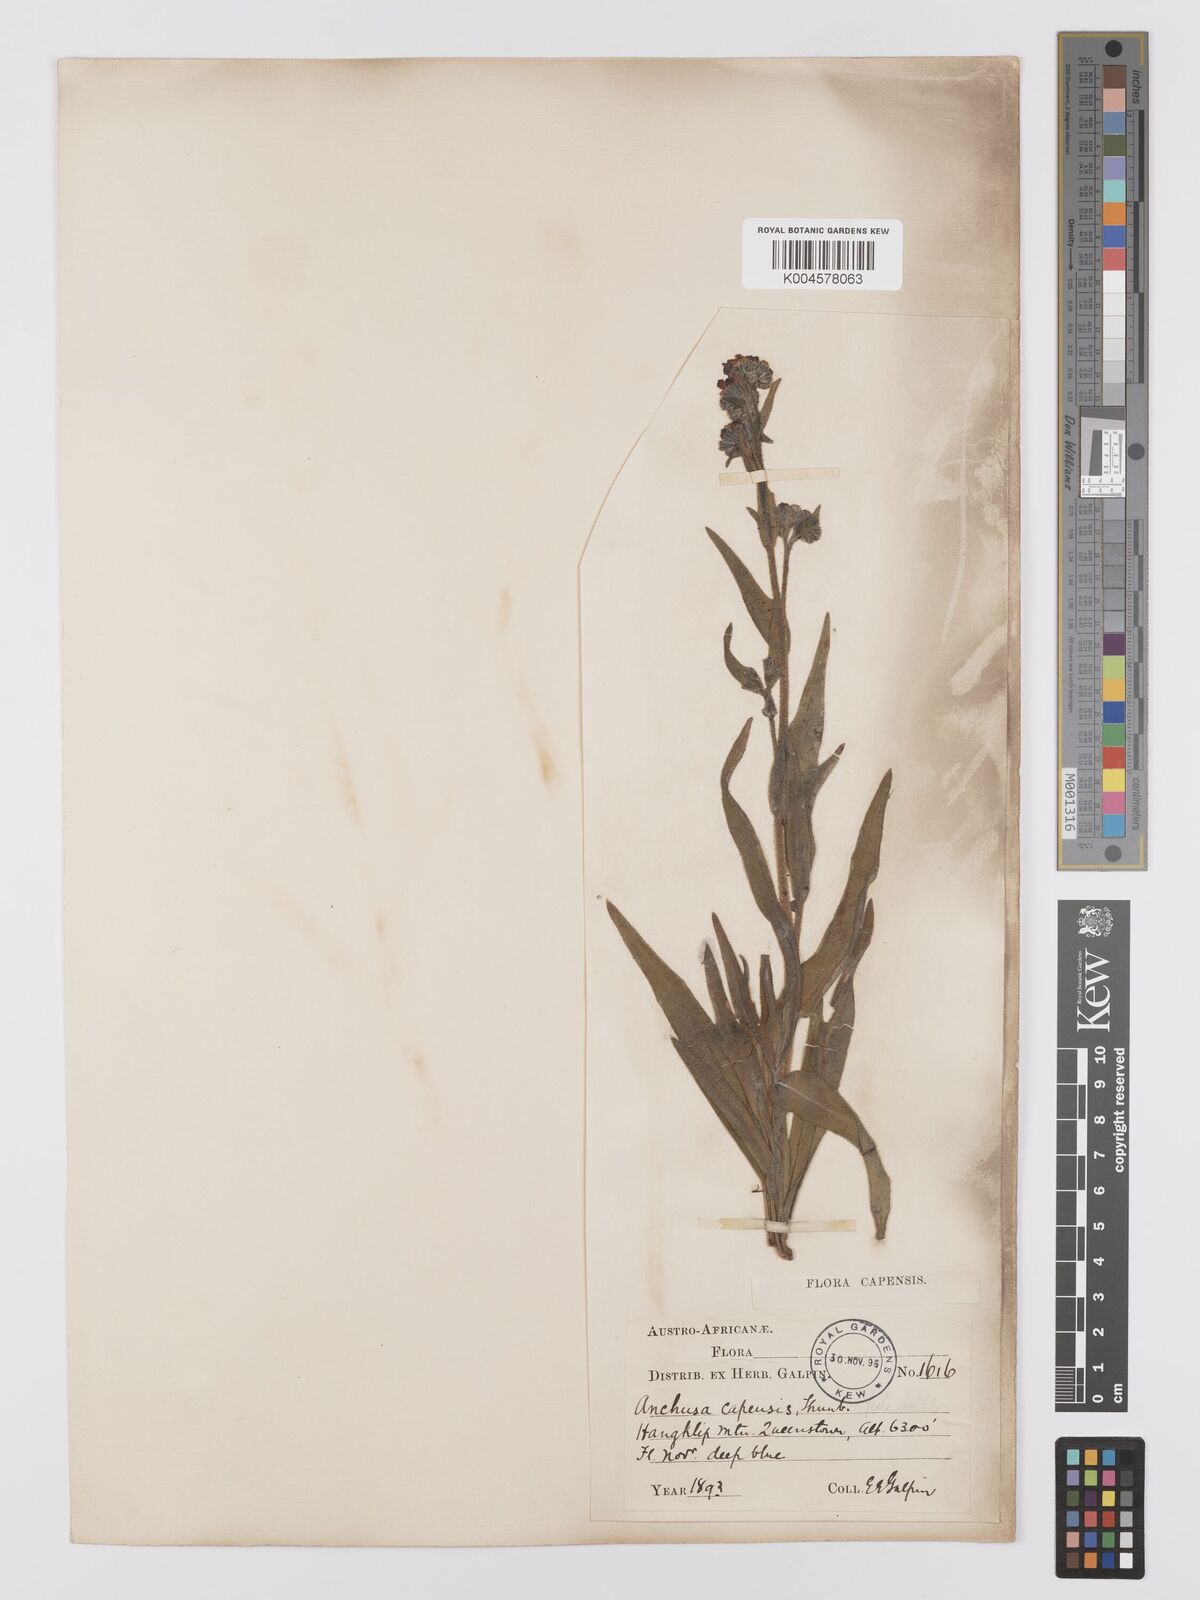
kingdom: Plantae
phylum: Tracheophyta
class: Magnoliopsida
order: Boraginales
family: Boraginaceae
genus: Anchusa
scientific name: Anchusa capensis
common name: Cape bugloss
